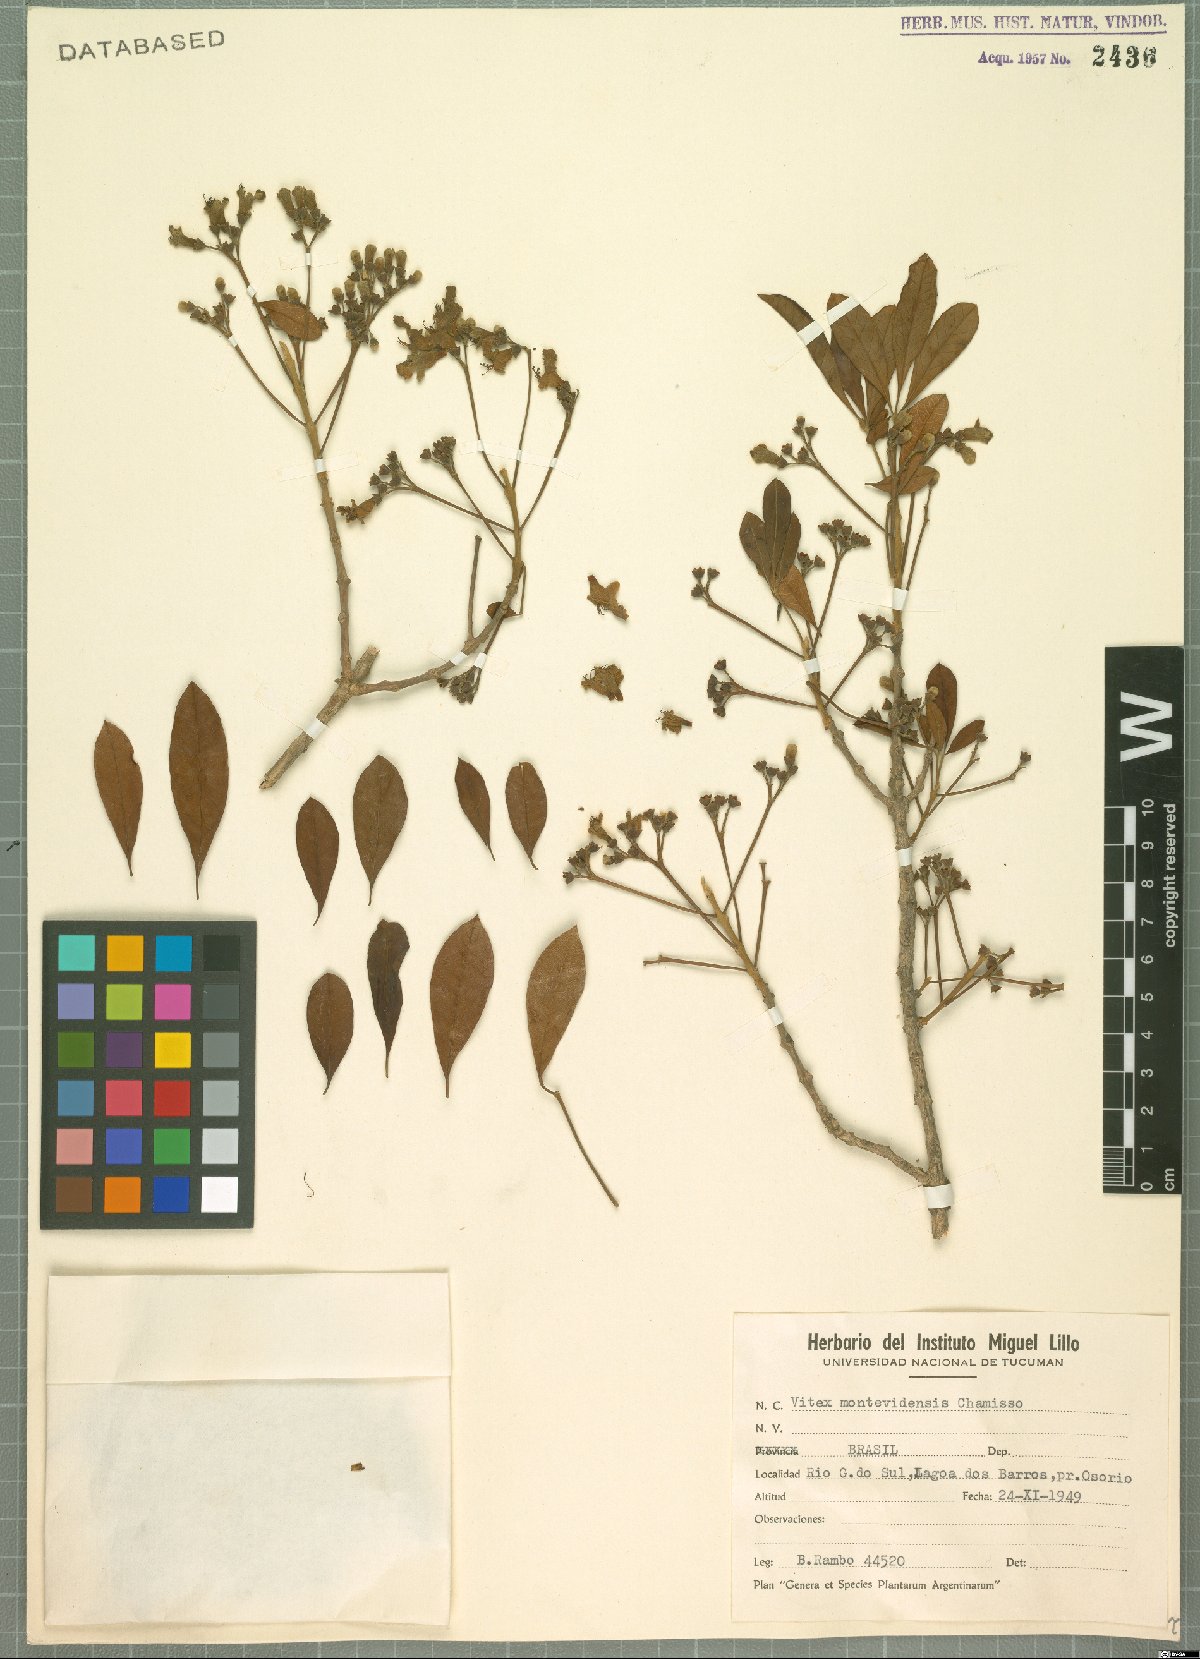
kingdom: Plantae
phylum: Tracheophyta
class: Magnoliopsida
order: Lamiales
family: Lamiaceae
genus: Vitex
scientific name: Vitex megapotamica
